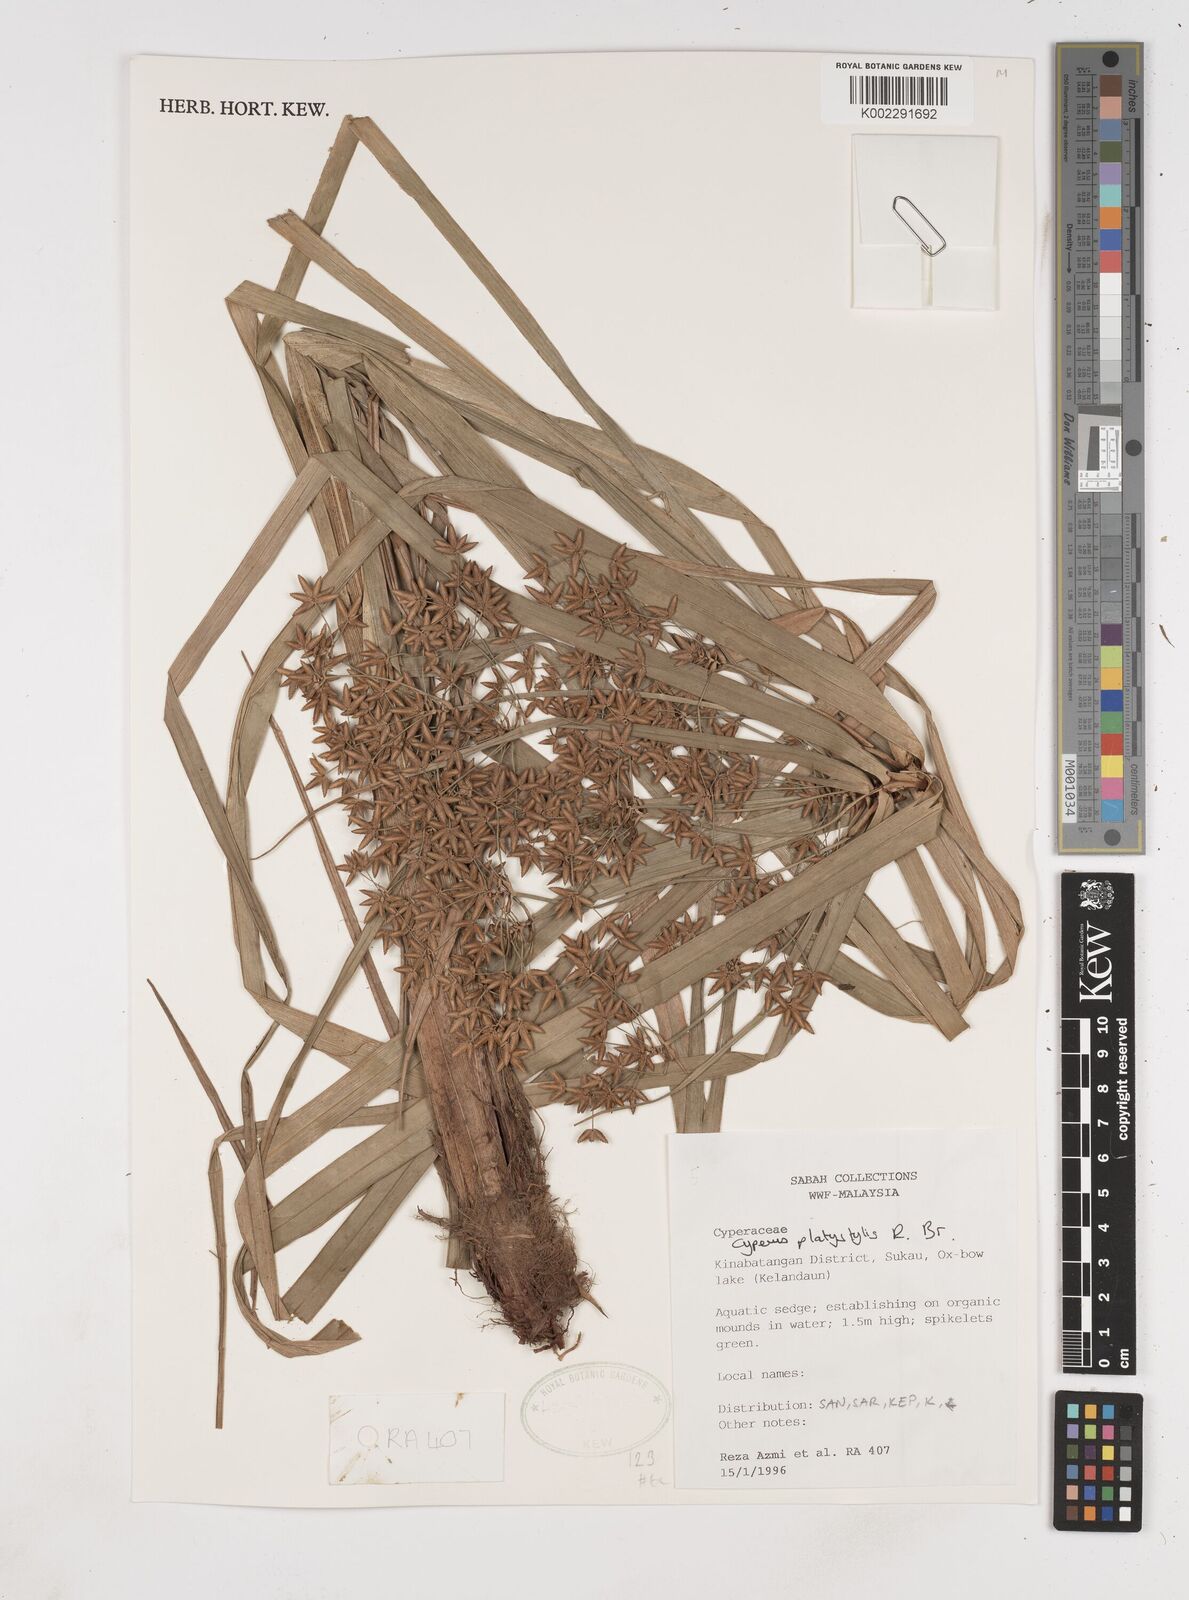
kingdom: Plantae
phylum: Tracheophyta
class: Liliopsida
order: Poales
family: Cyperaceae
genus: Cyperus
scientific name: Cyperus platystylis
